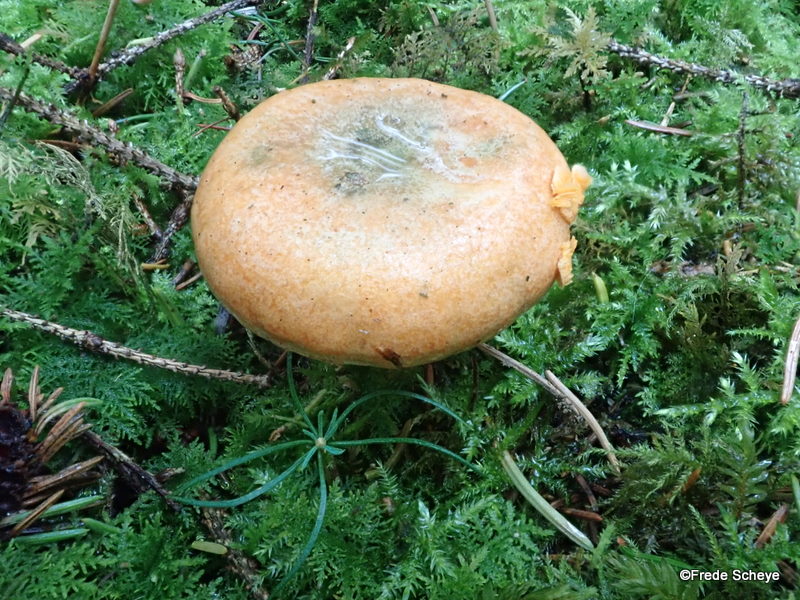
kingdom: Fungi
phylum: Basidiomycota
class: Agaricomycetes
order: Russulales
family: Russulaceae
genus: Lactarius
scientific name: Lactarius deterrimus
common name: gran-mælkehat
